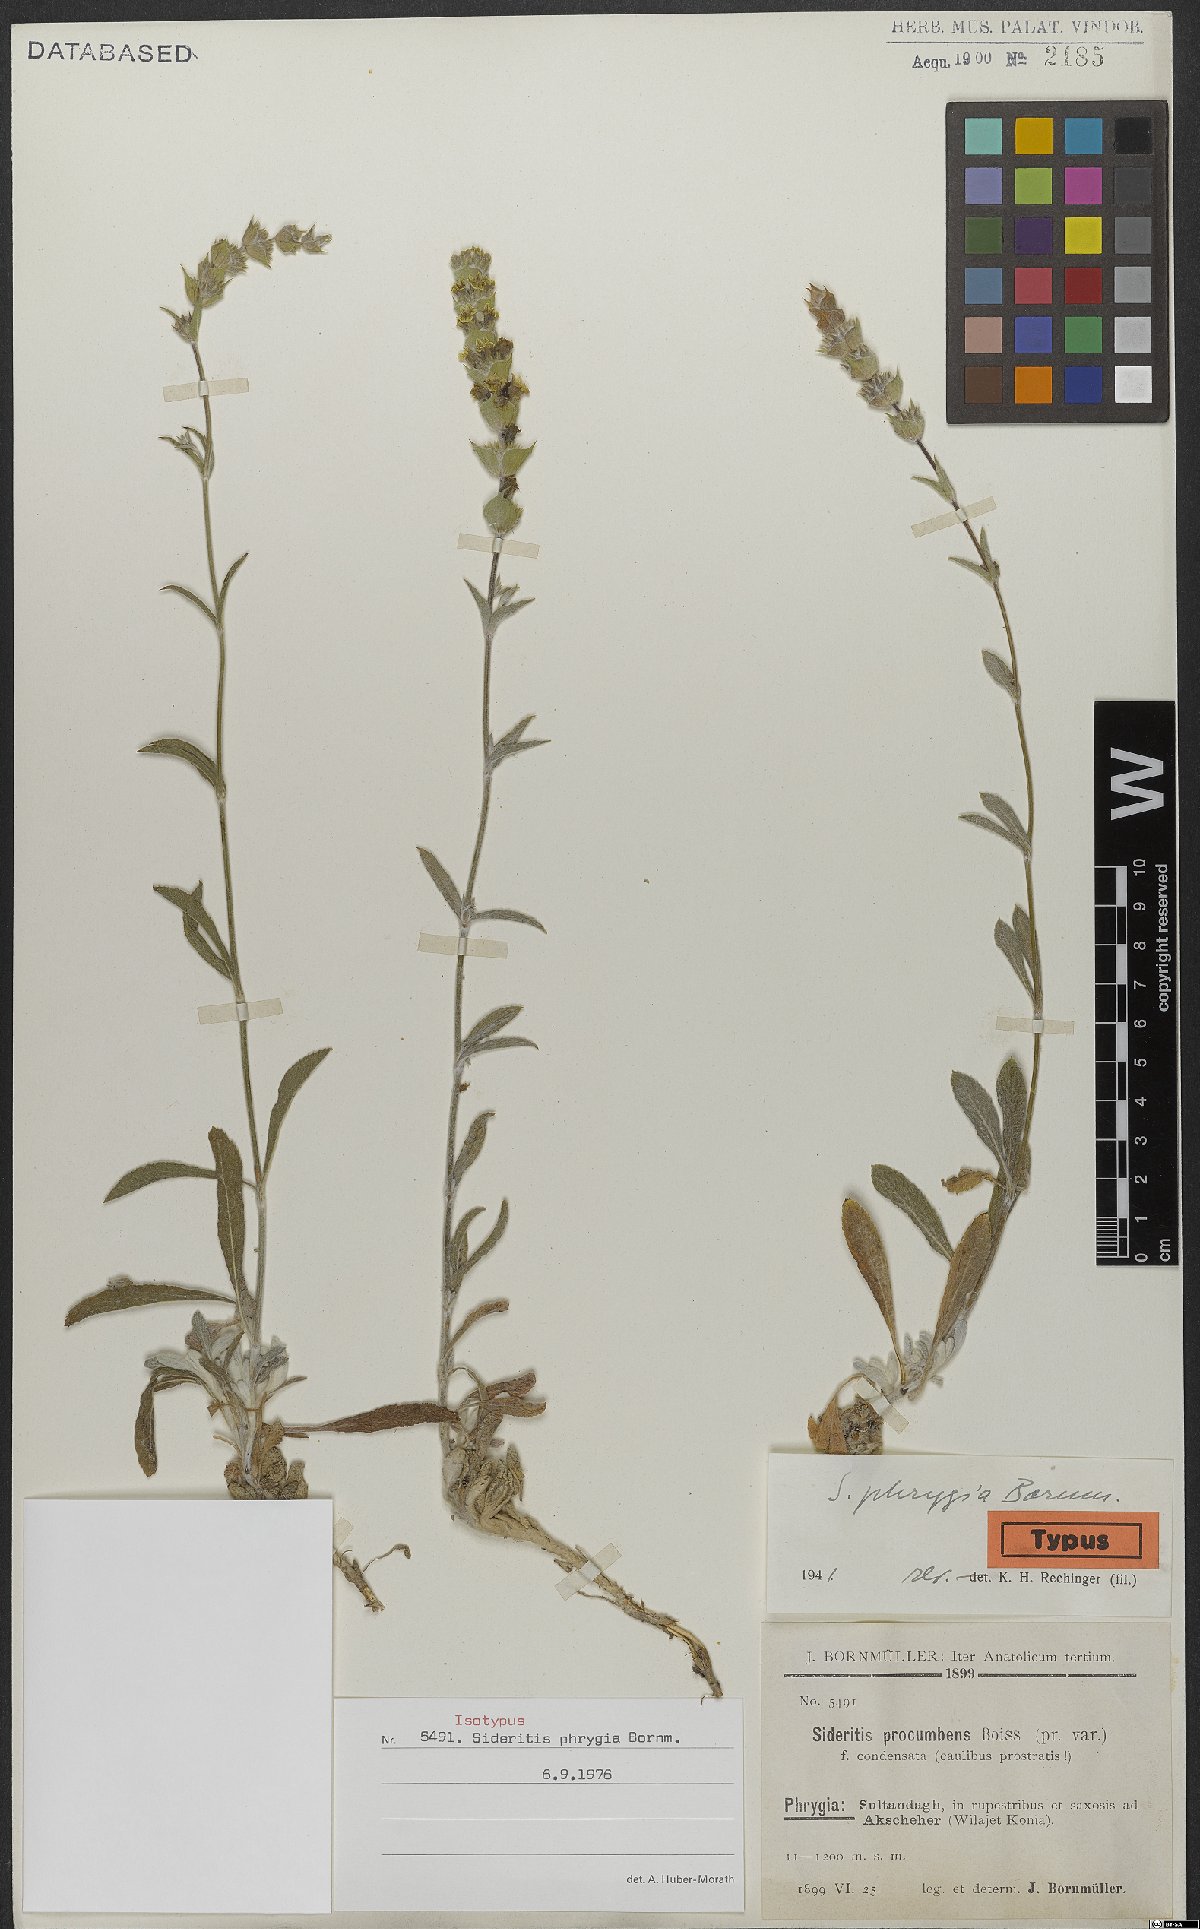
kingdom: Plantae
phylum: Tracheophyta
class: Magnoliopsida
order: Lamiales
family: Lamiaceae
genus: Sideritis
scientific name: Sideritis phrygia
